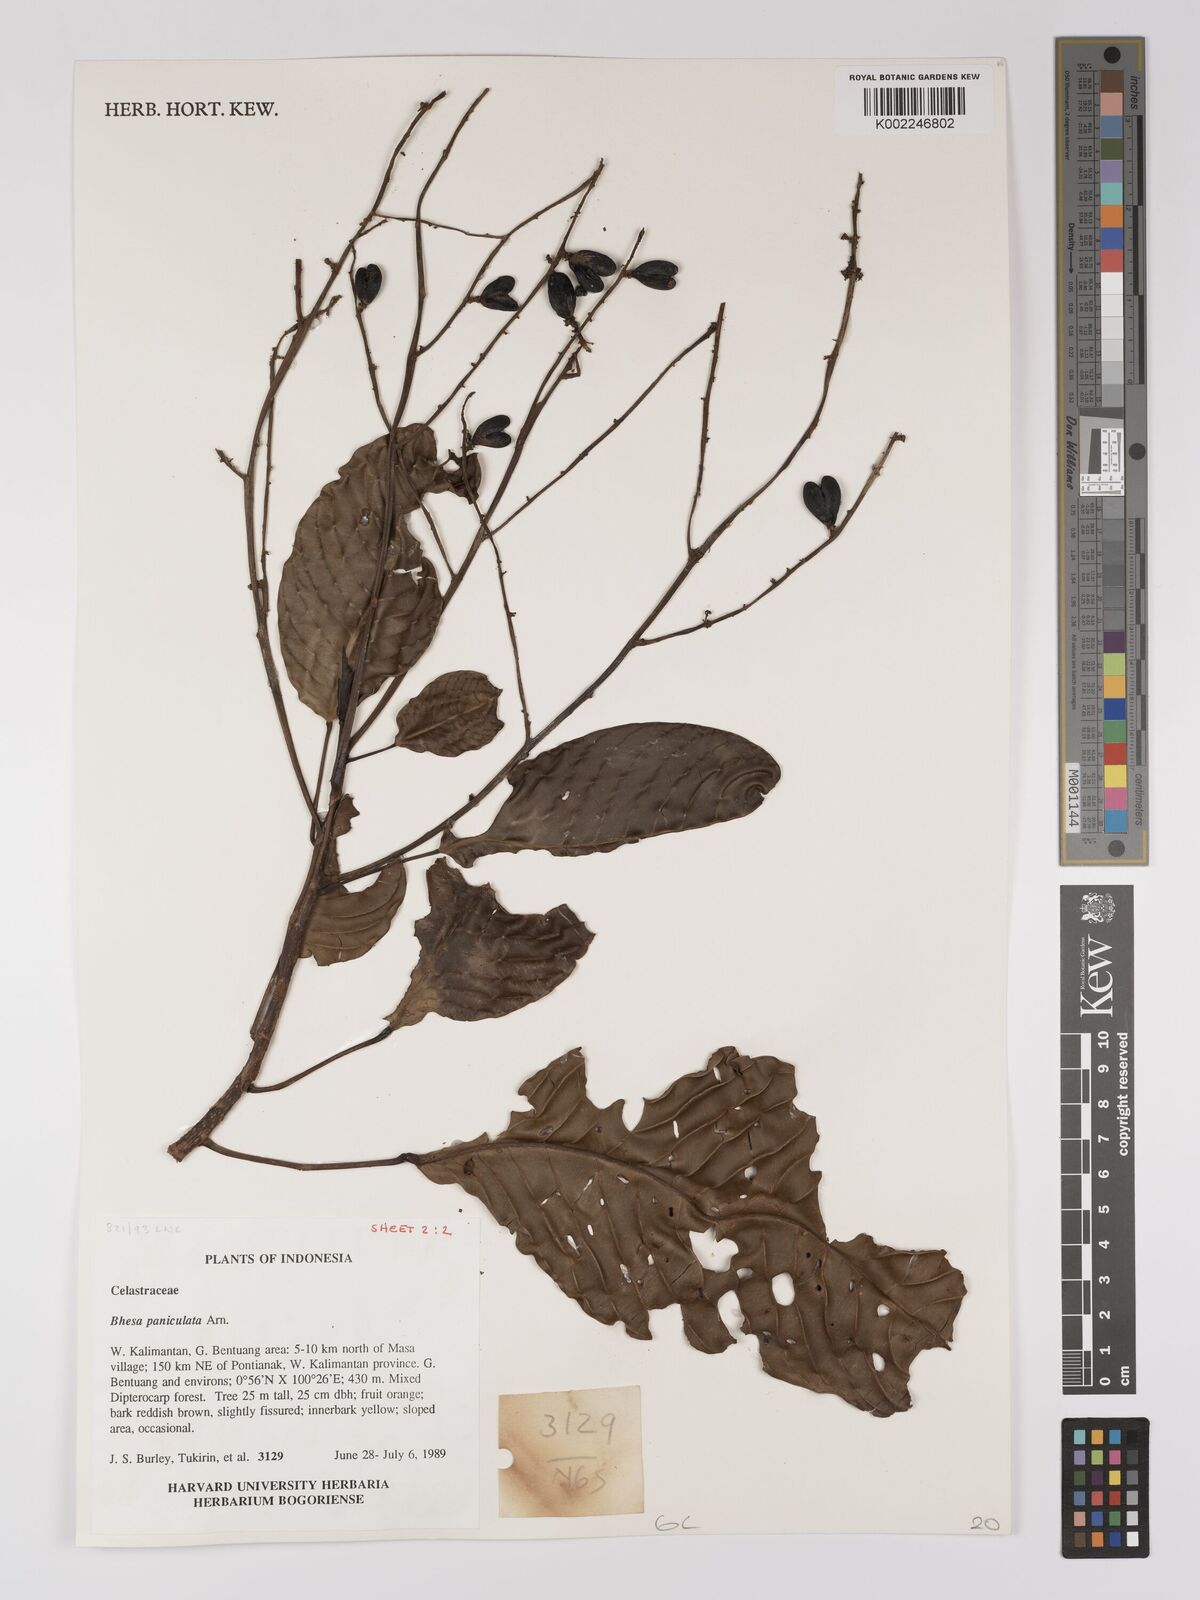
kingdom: Plantae
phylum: Tracheophyta
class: Magnoliopsida
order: Malpighiales
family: Centroplacaceae
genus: Bhesa
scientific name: Bhesa paniculata
